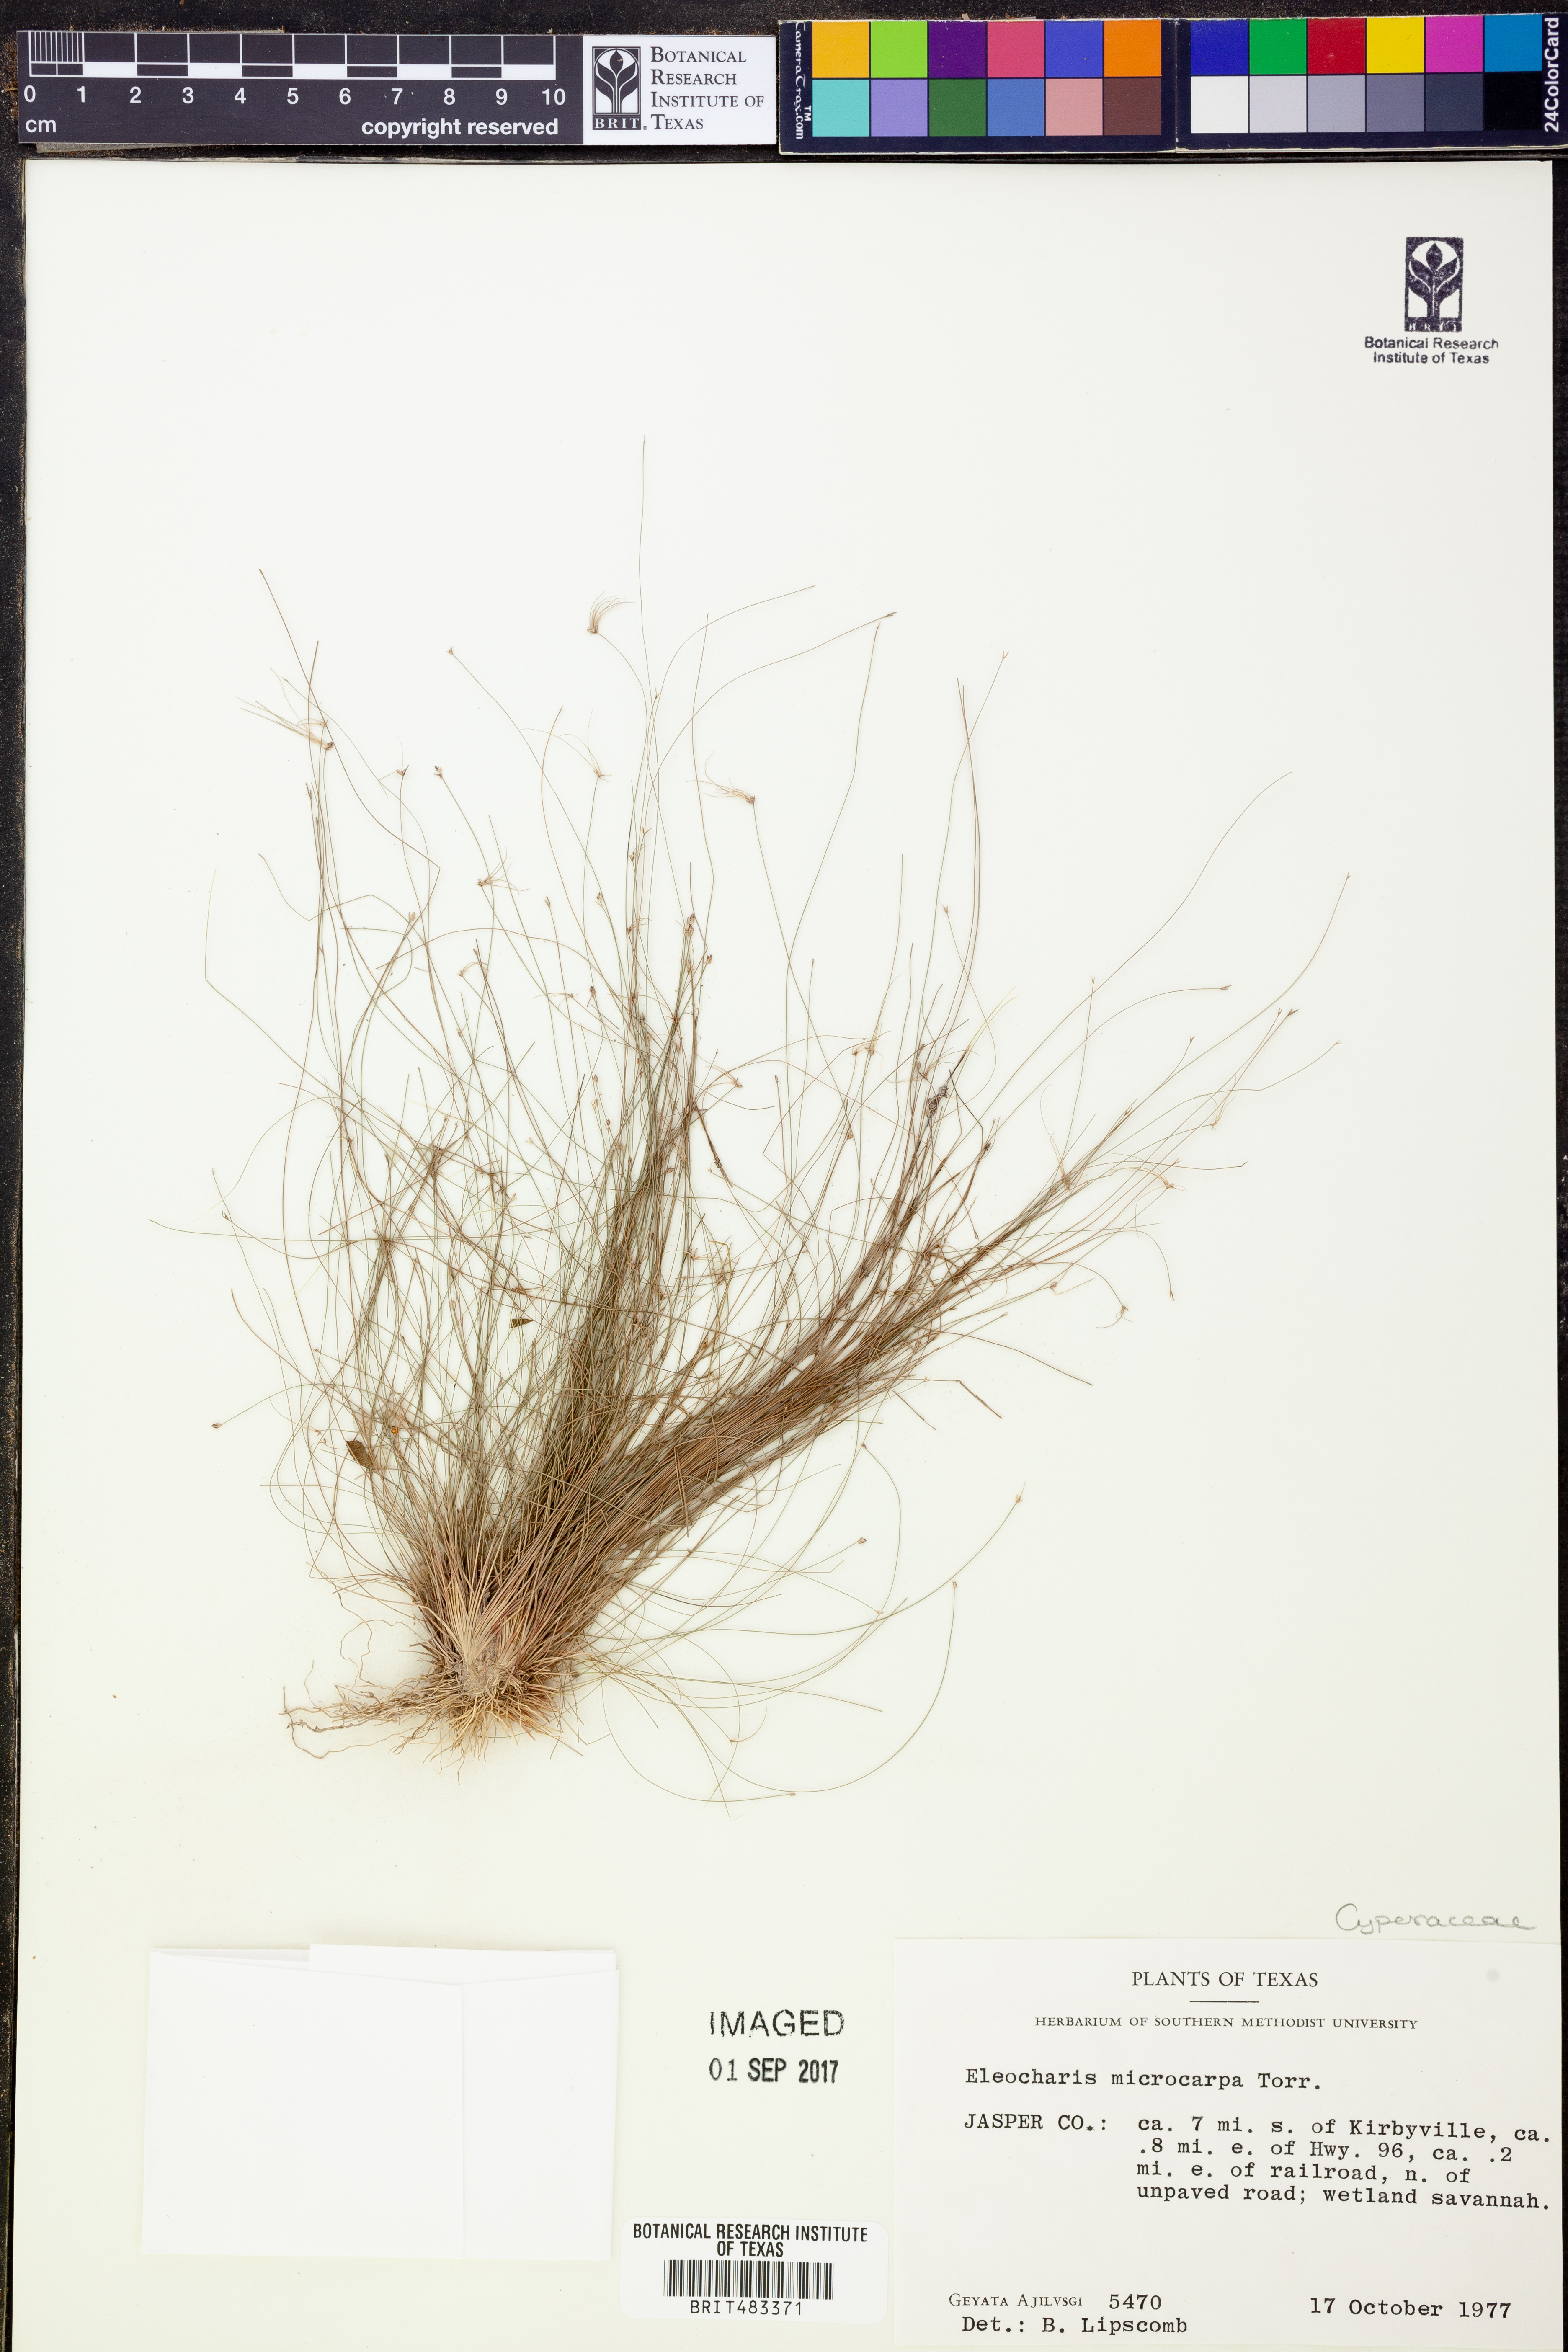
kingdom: Plantae
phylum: Tracheophyta
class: Liliopsida
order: Poales
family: Cyperaceae
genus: Eleocharis
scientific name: Eleocharis microcarpa
